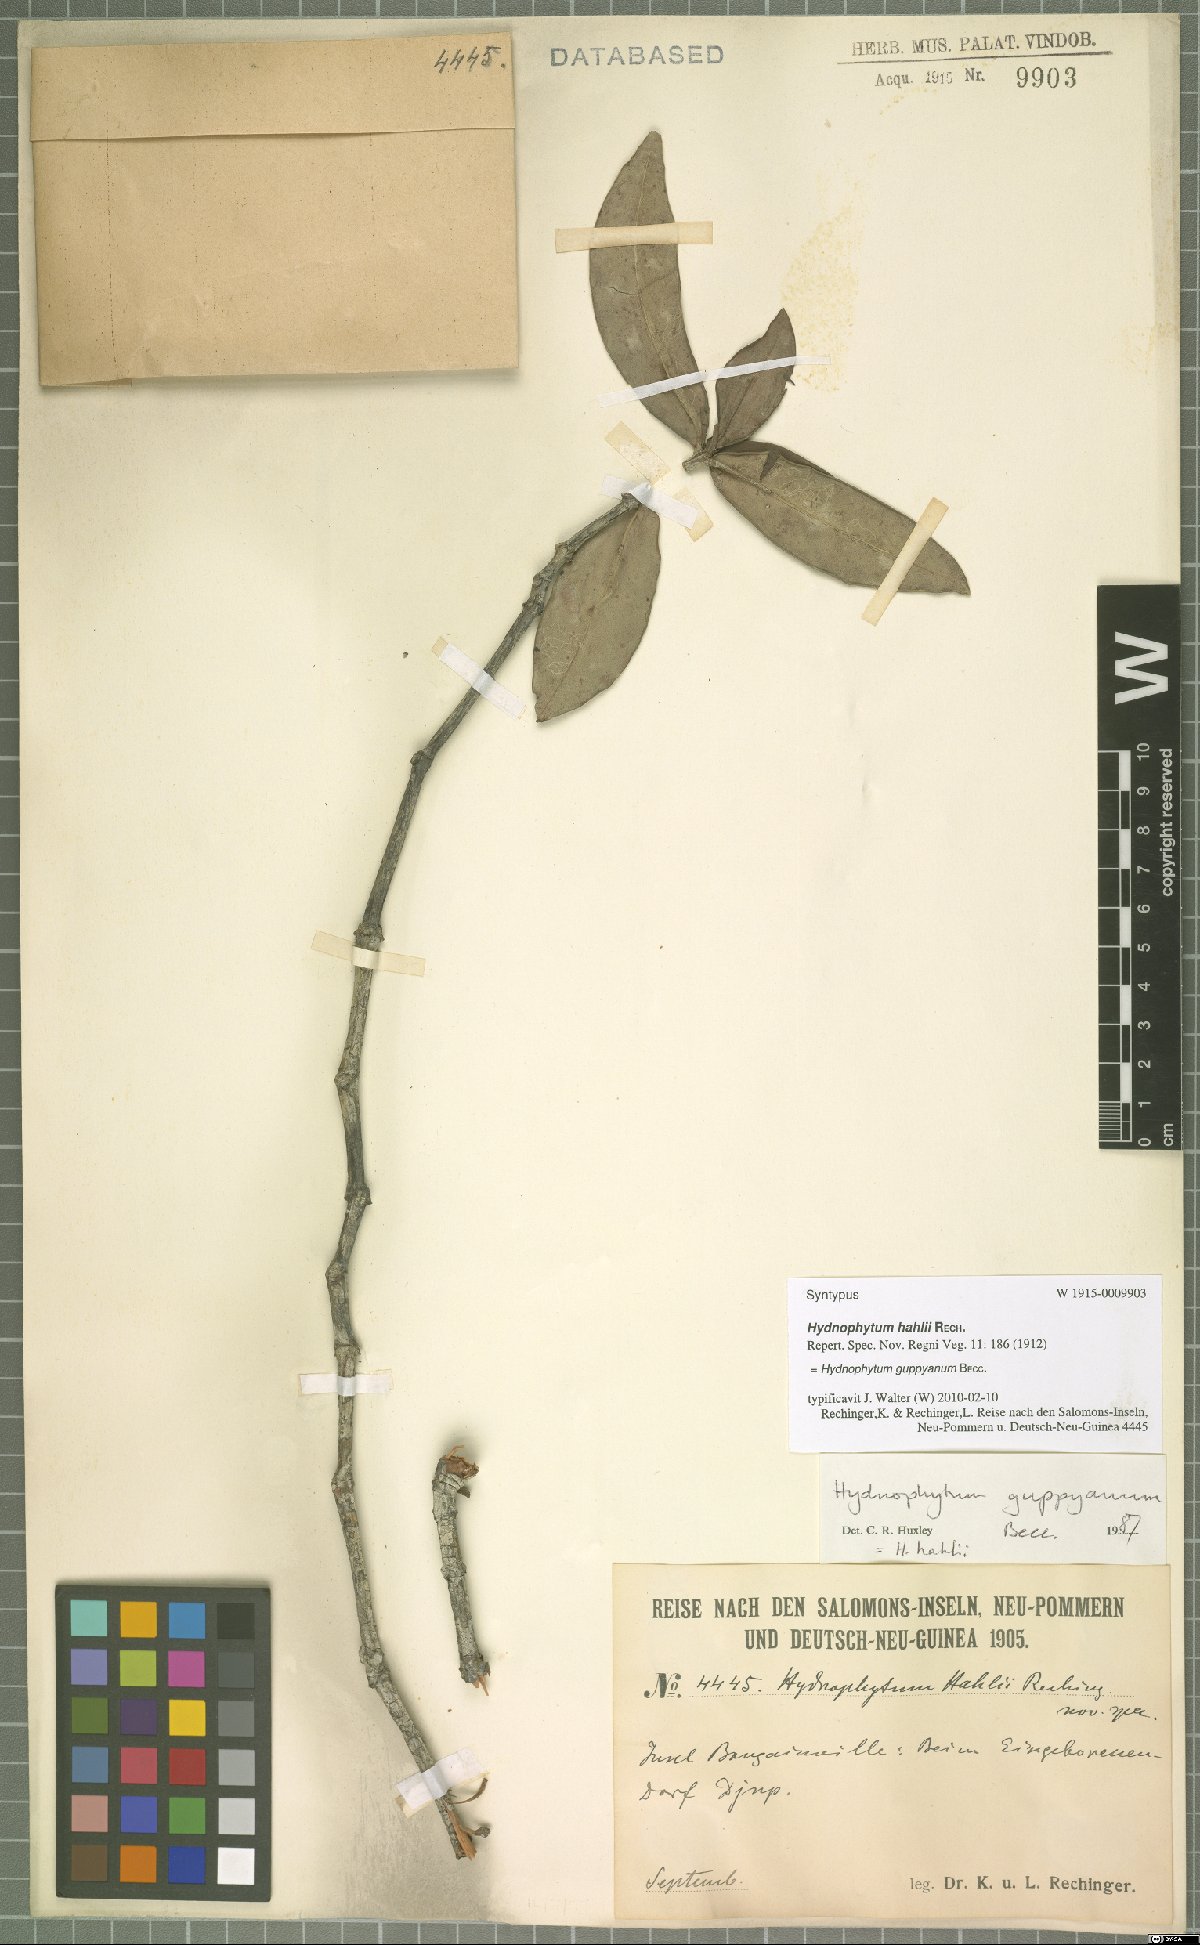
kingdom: Plantae
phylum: Tracheophyta
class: Magnoliopsida
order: Gentianales
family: Rubiaceae
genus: Squamellaria
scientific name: Squamellaria guppyana
